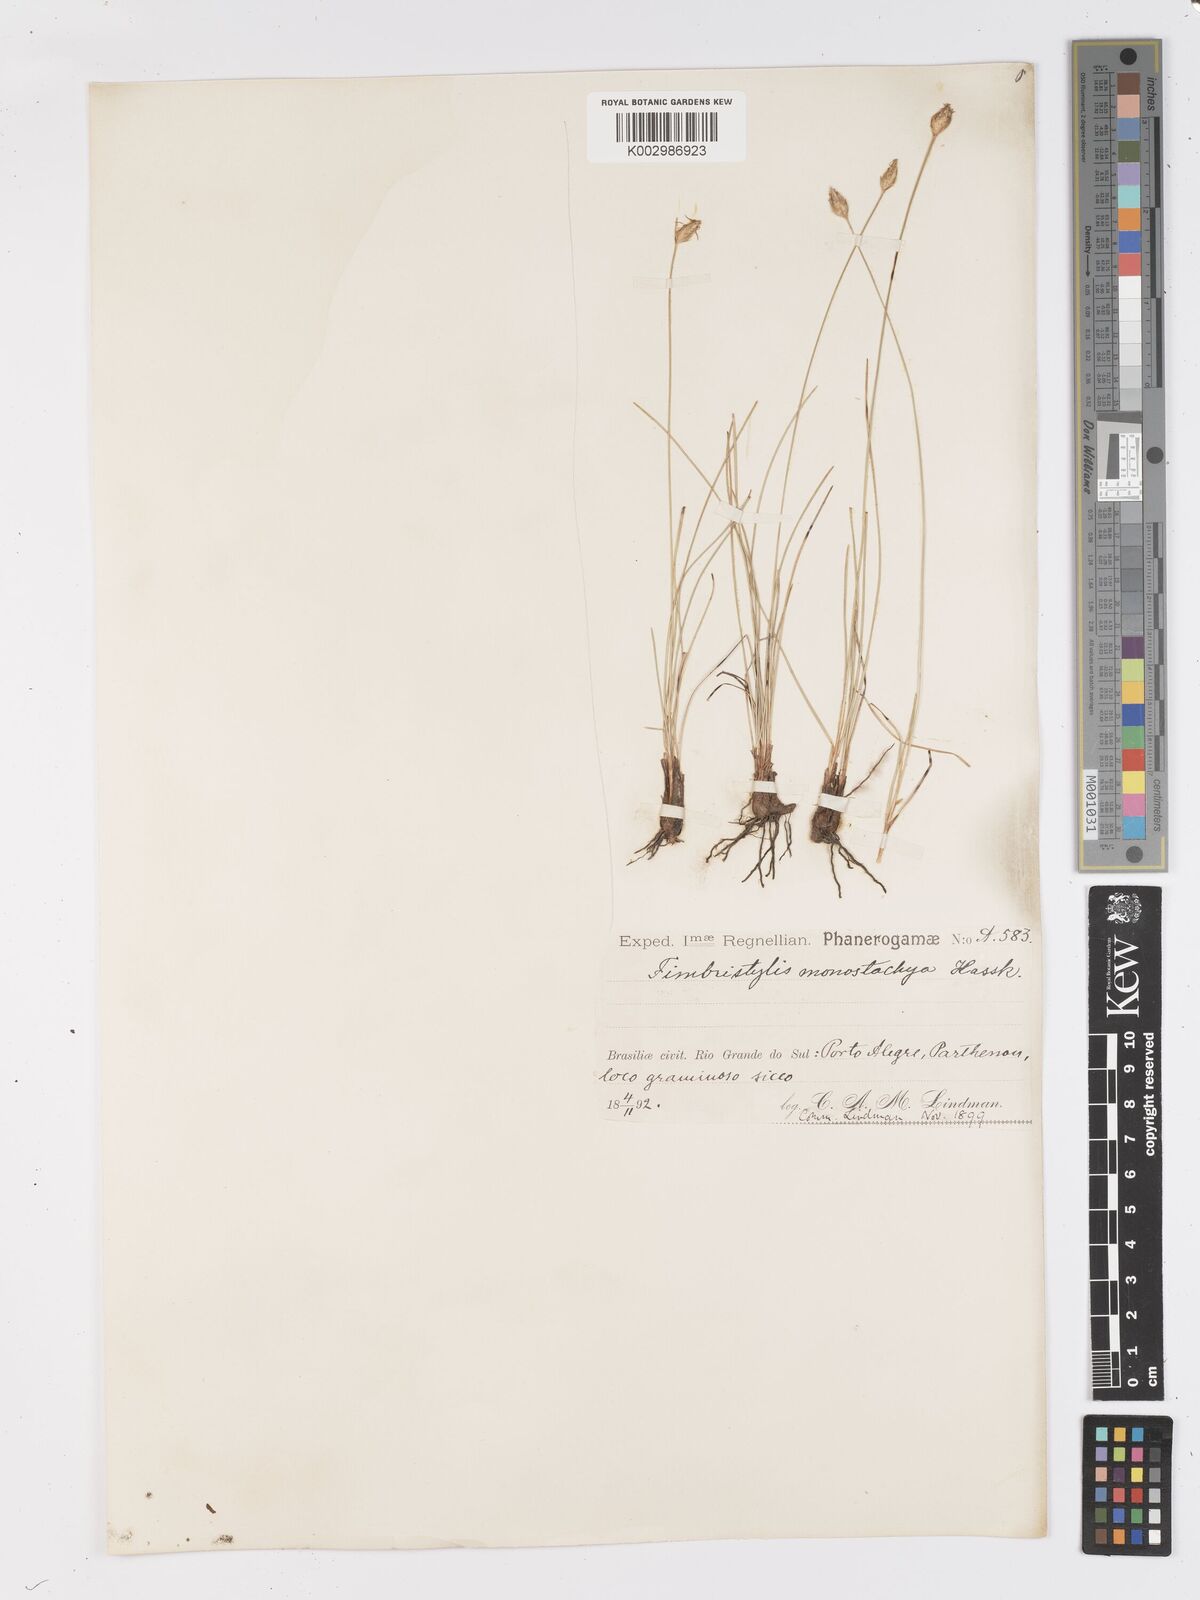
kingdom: Plantae
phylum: Tracheophyta
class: Liliopsida
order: Poales
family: Cyperaceae
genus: Abildgaardia
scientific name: Abildgaardia ovata
